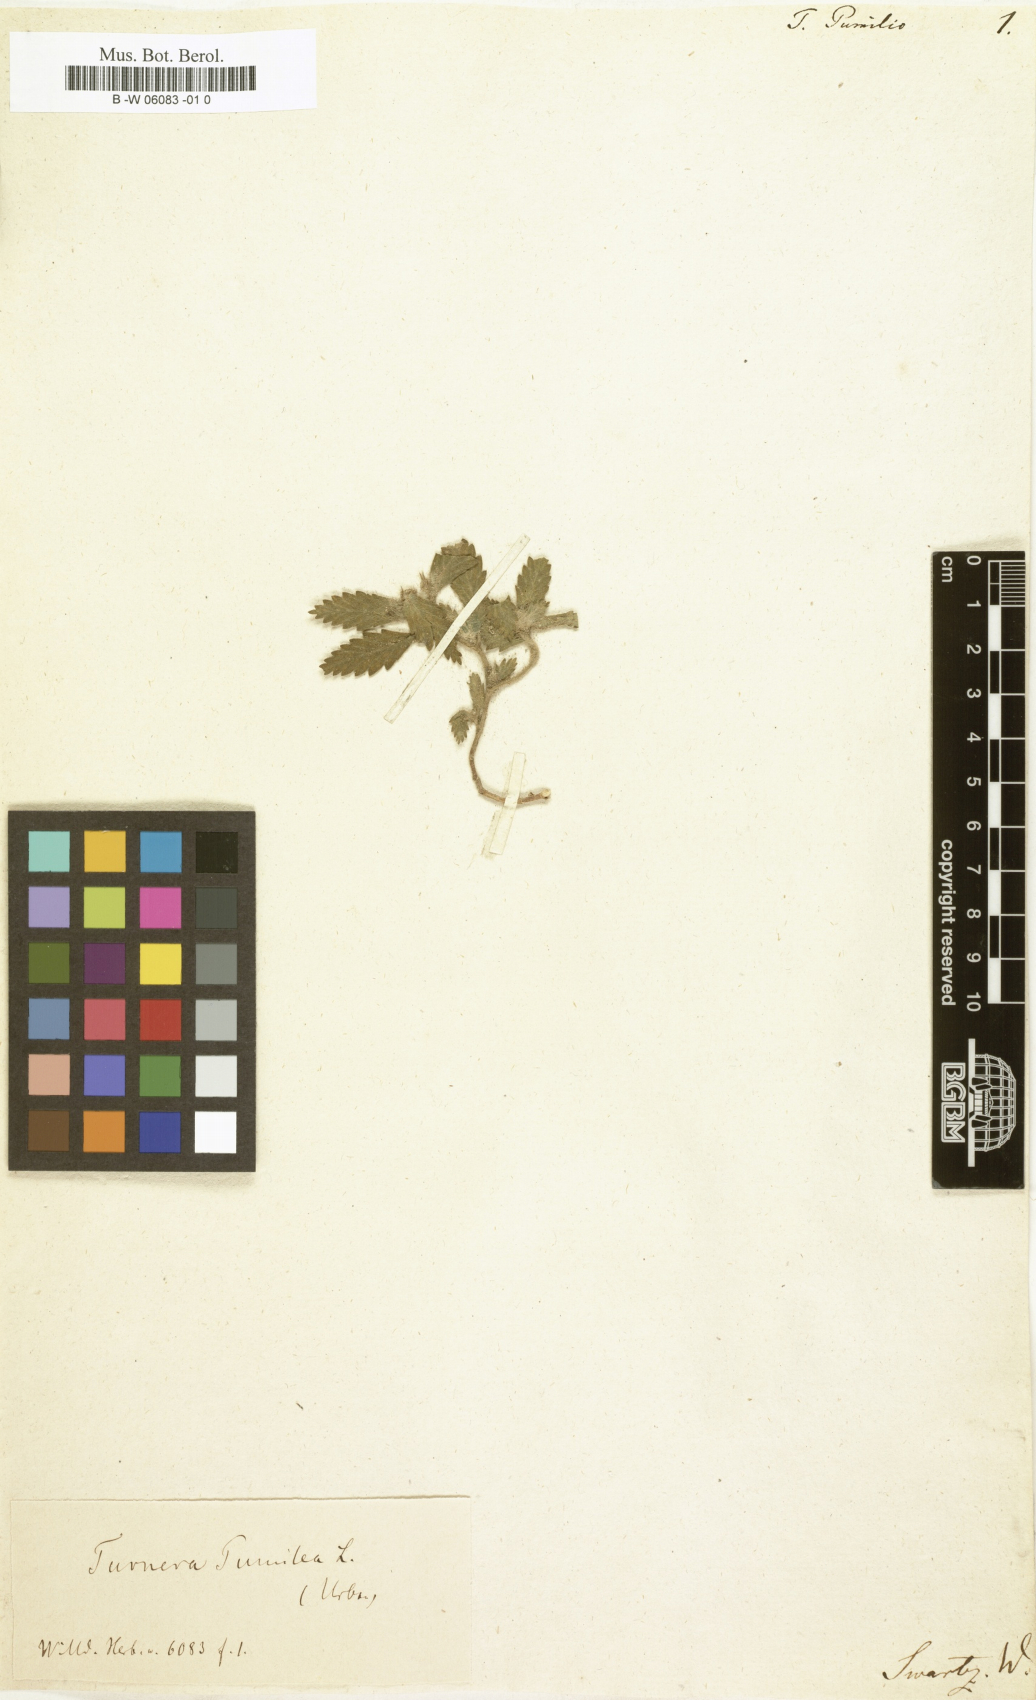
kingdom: Plantae
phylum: Tracheophyta
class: Magnoliopsida
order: Malpighiales
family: Turneraceae
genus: Turnera
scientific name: Turnera pumilea
